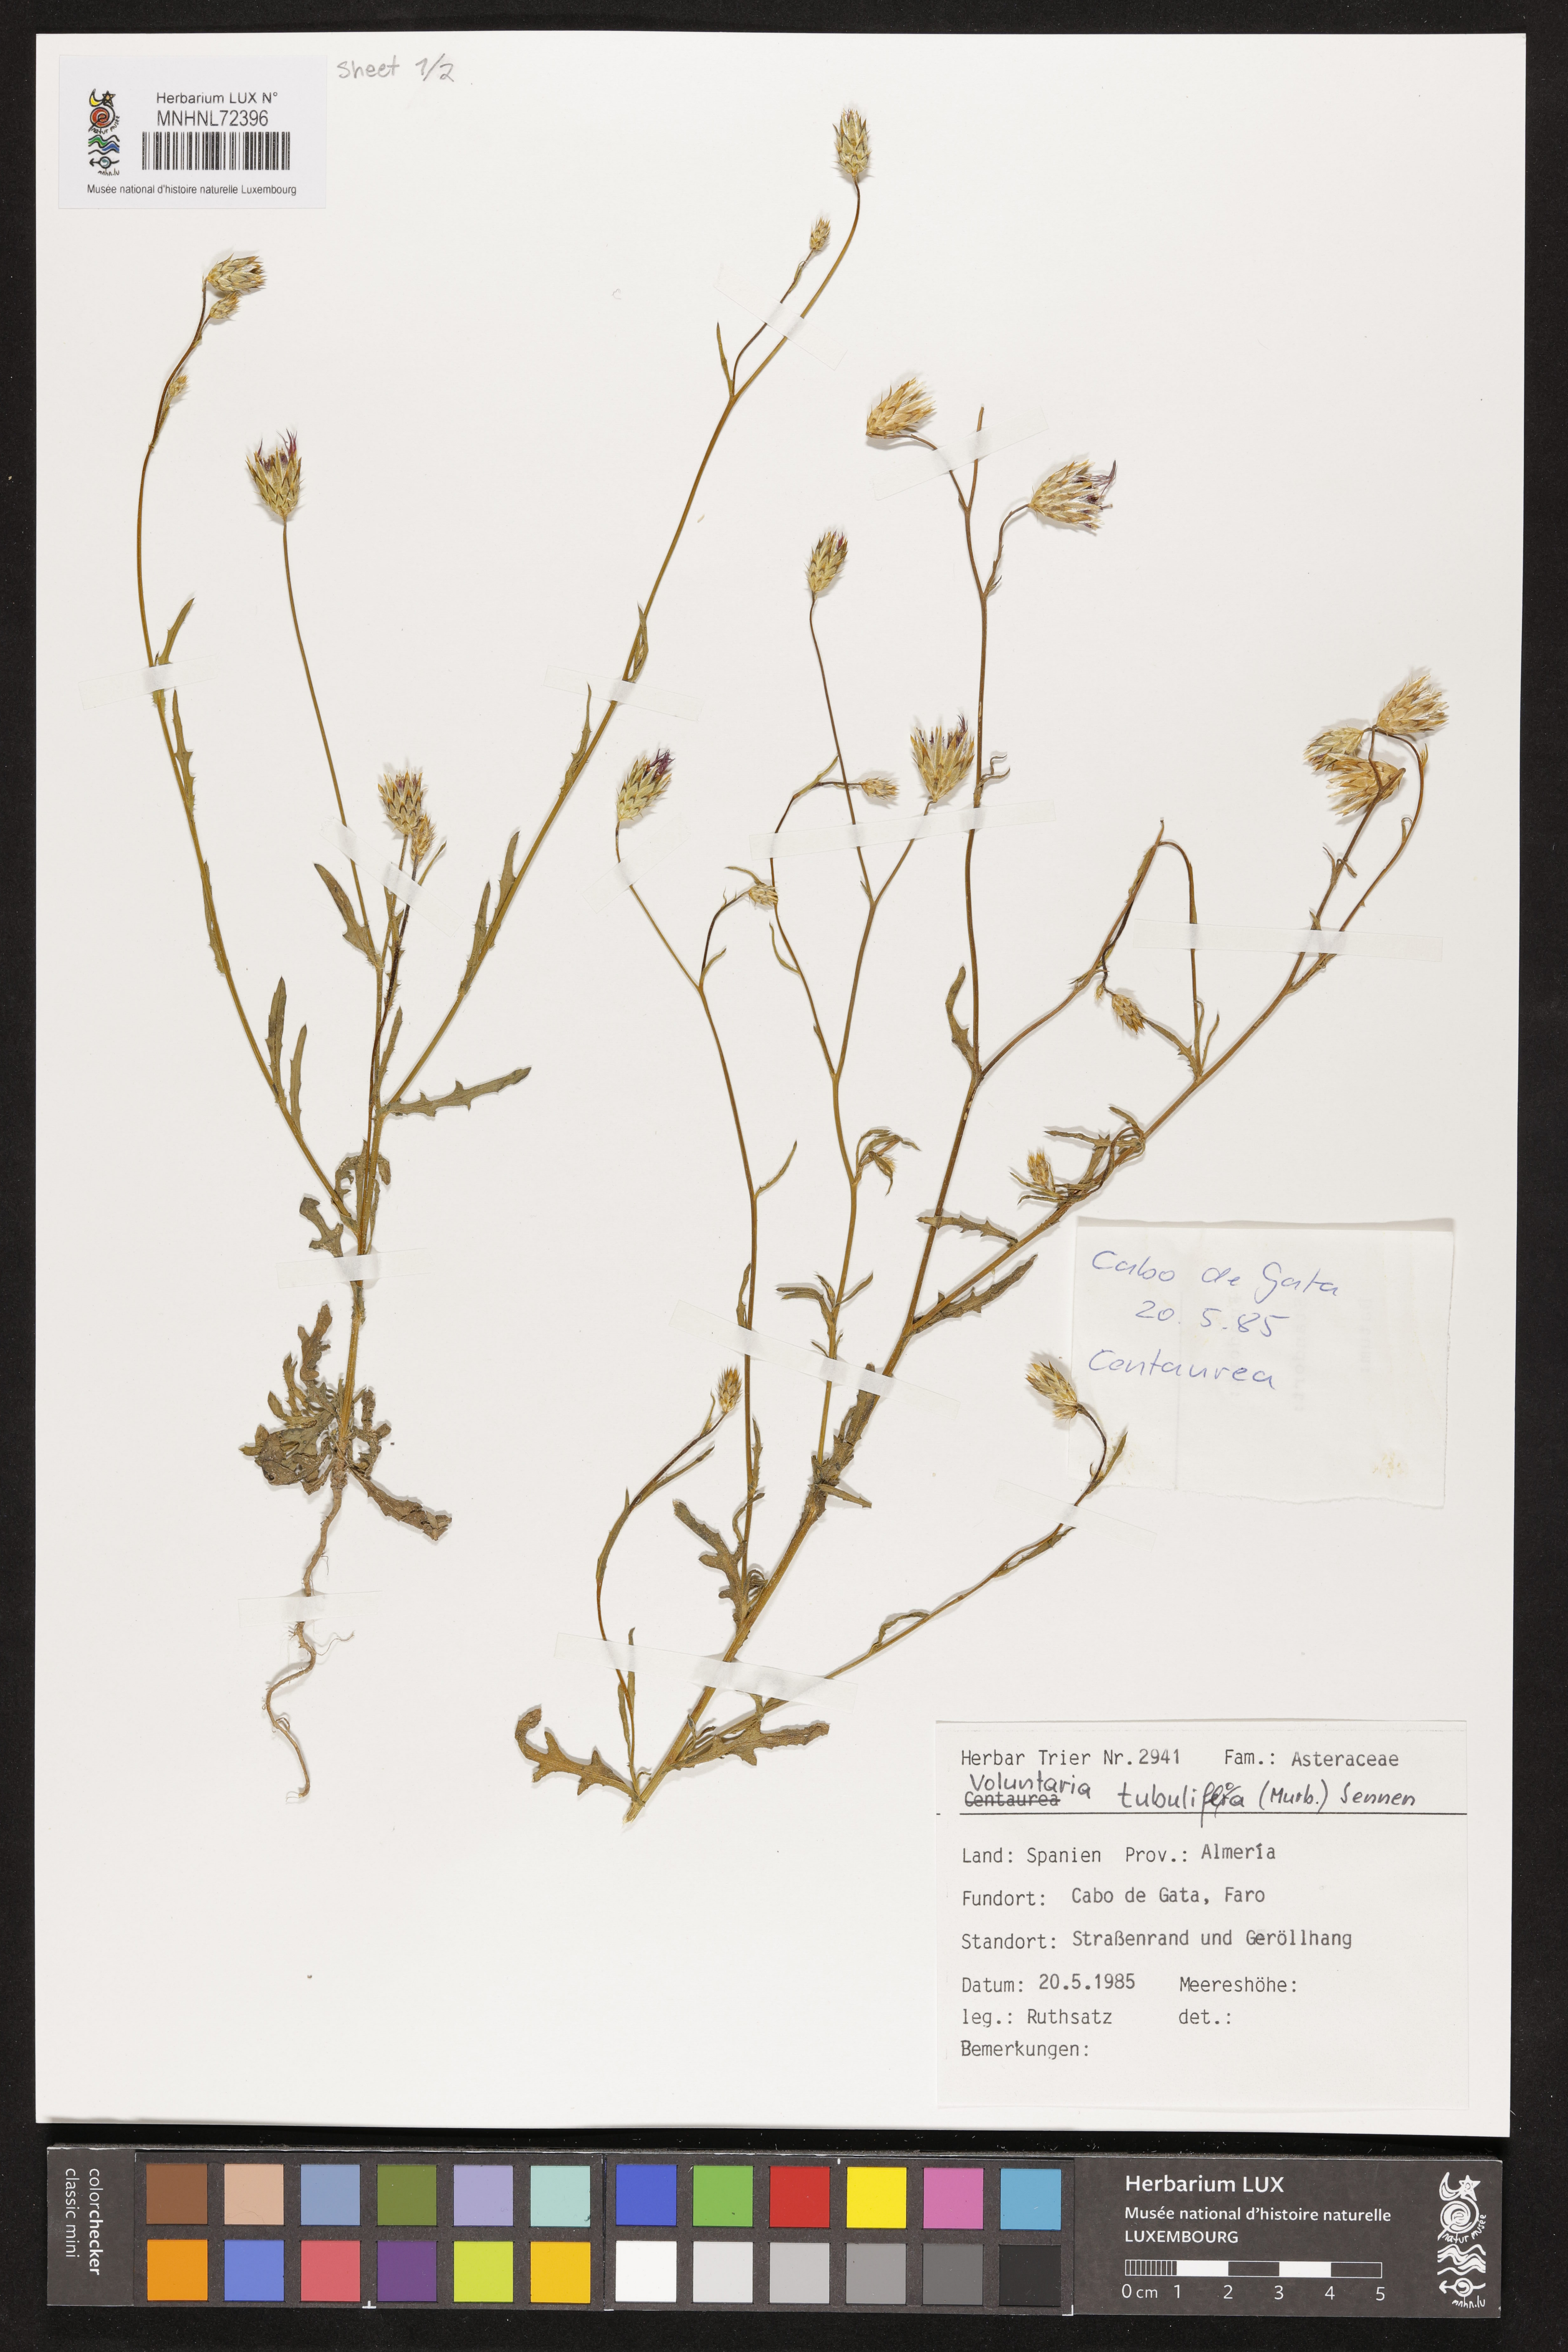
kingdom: Plantae
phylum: Tracheophyta
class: Magnoliopsida
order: Asterales
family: Asteraceae
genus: Volutaria
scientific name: Volutaria tubuliflora
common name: Desert knapweed
